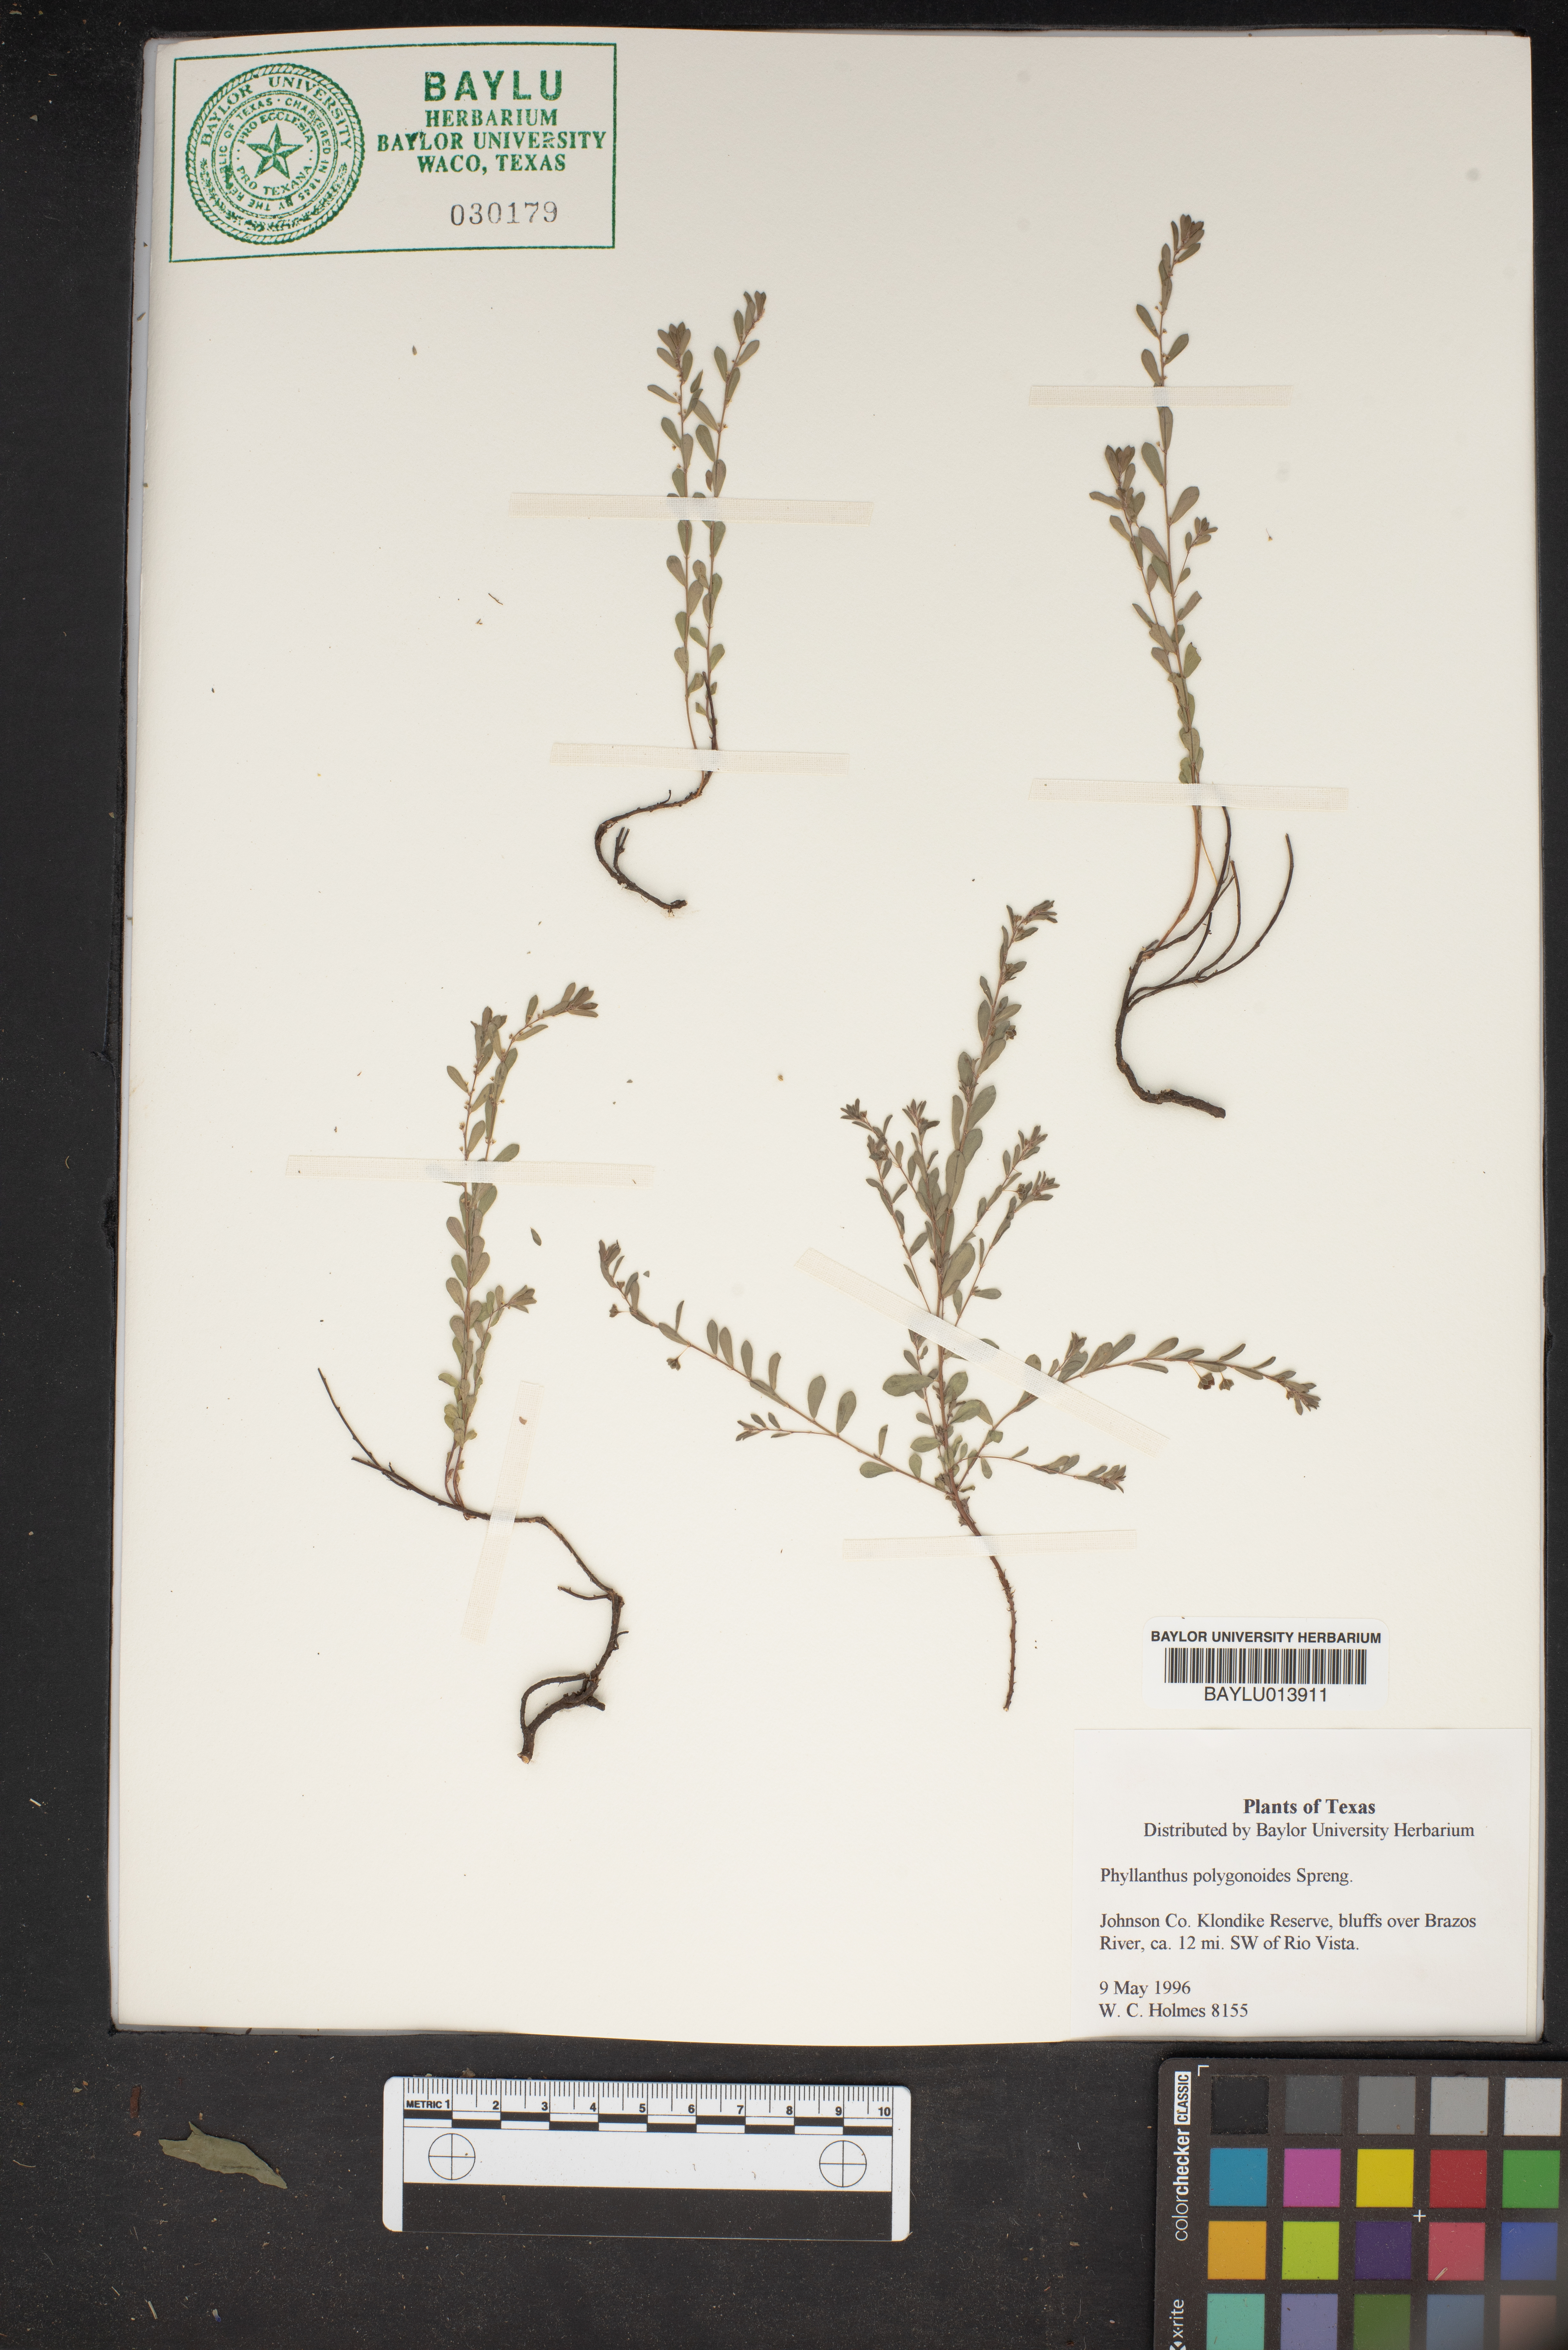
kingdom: Plantae
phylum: Tracheophyta
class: Magnoliopsida
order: Malpighiales
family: Phyllanthaceae
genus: Phyllanthus
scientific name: Phyllanthus polygonoides
